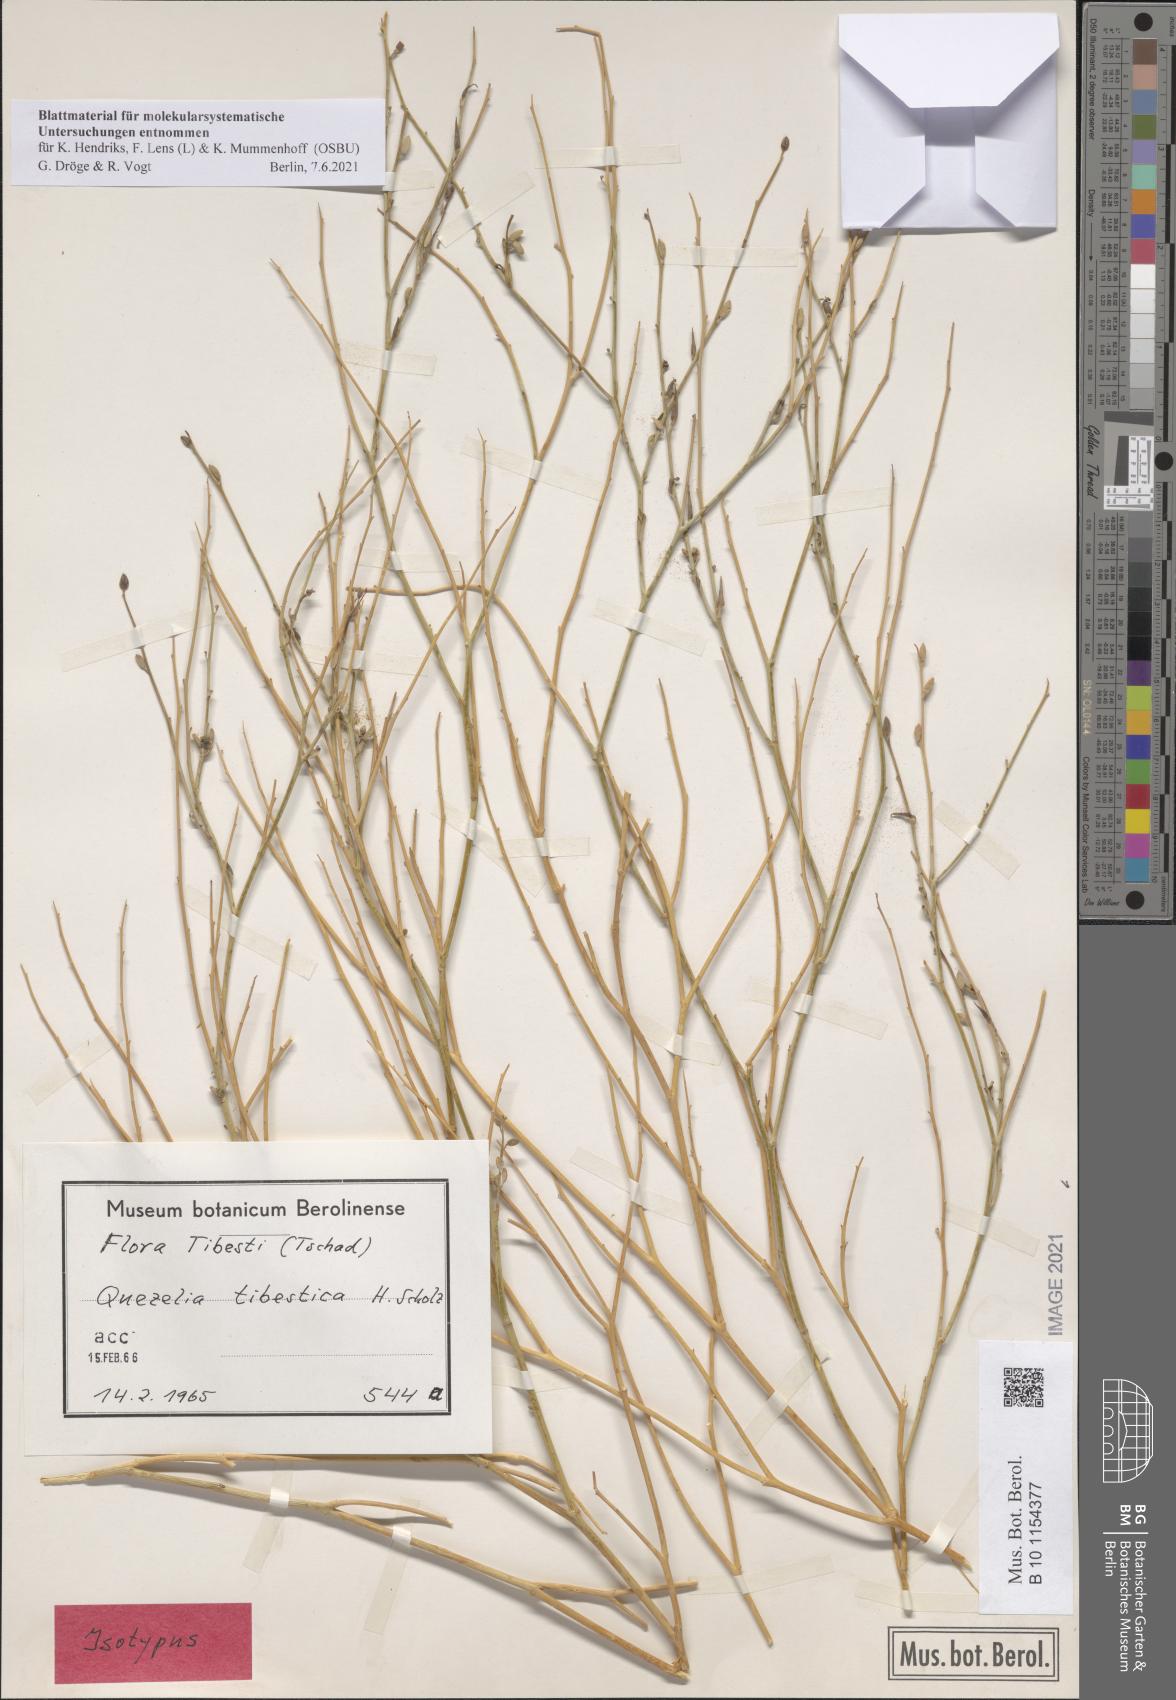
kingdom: Plantae
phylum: Tracheophyta
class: Magnoliopsida
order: Brassicales
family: Brassicaceae
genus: Quezeliantha
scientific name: Quezeliantha tibestica
